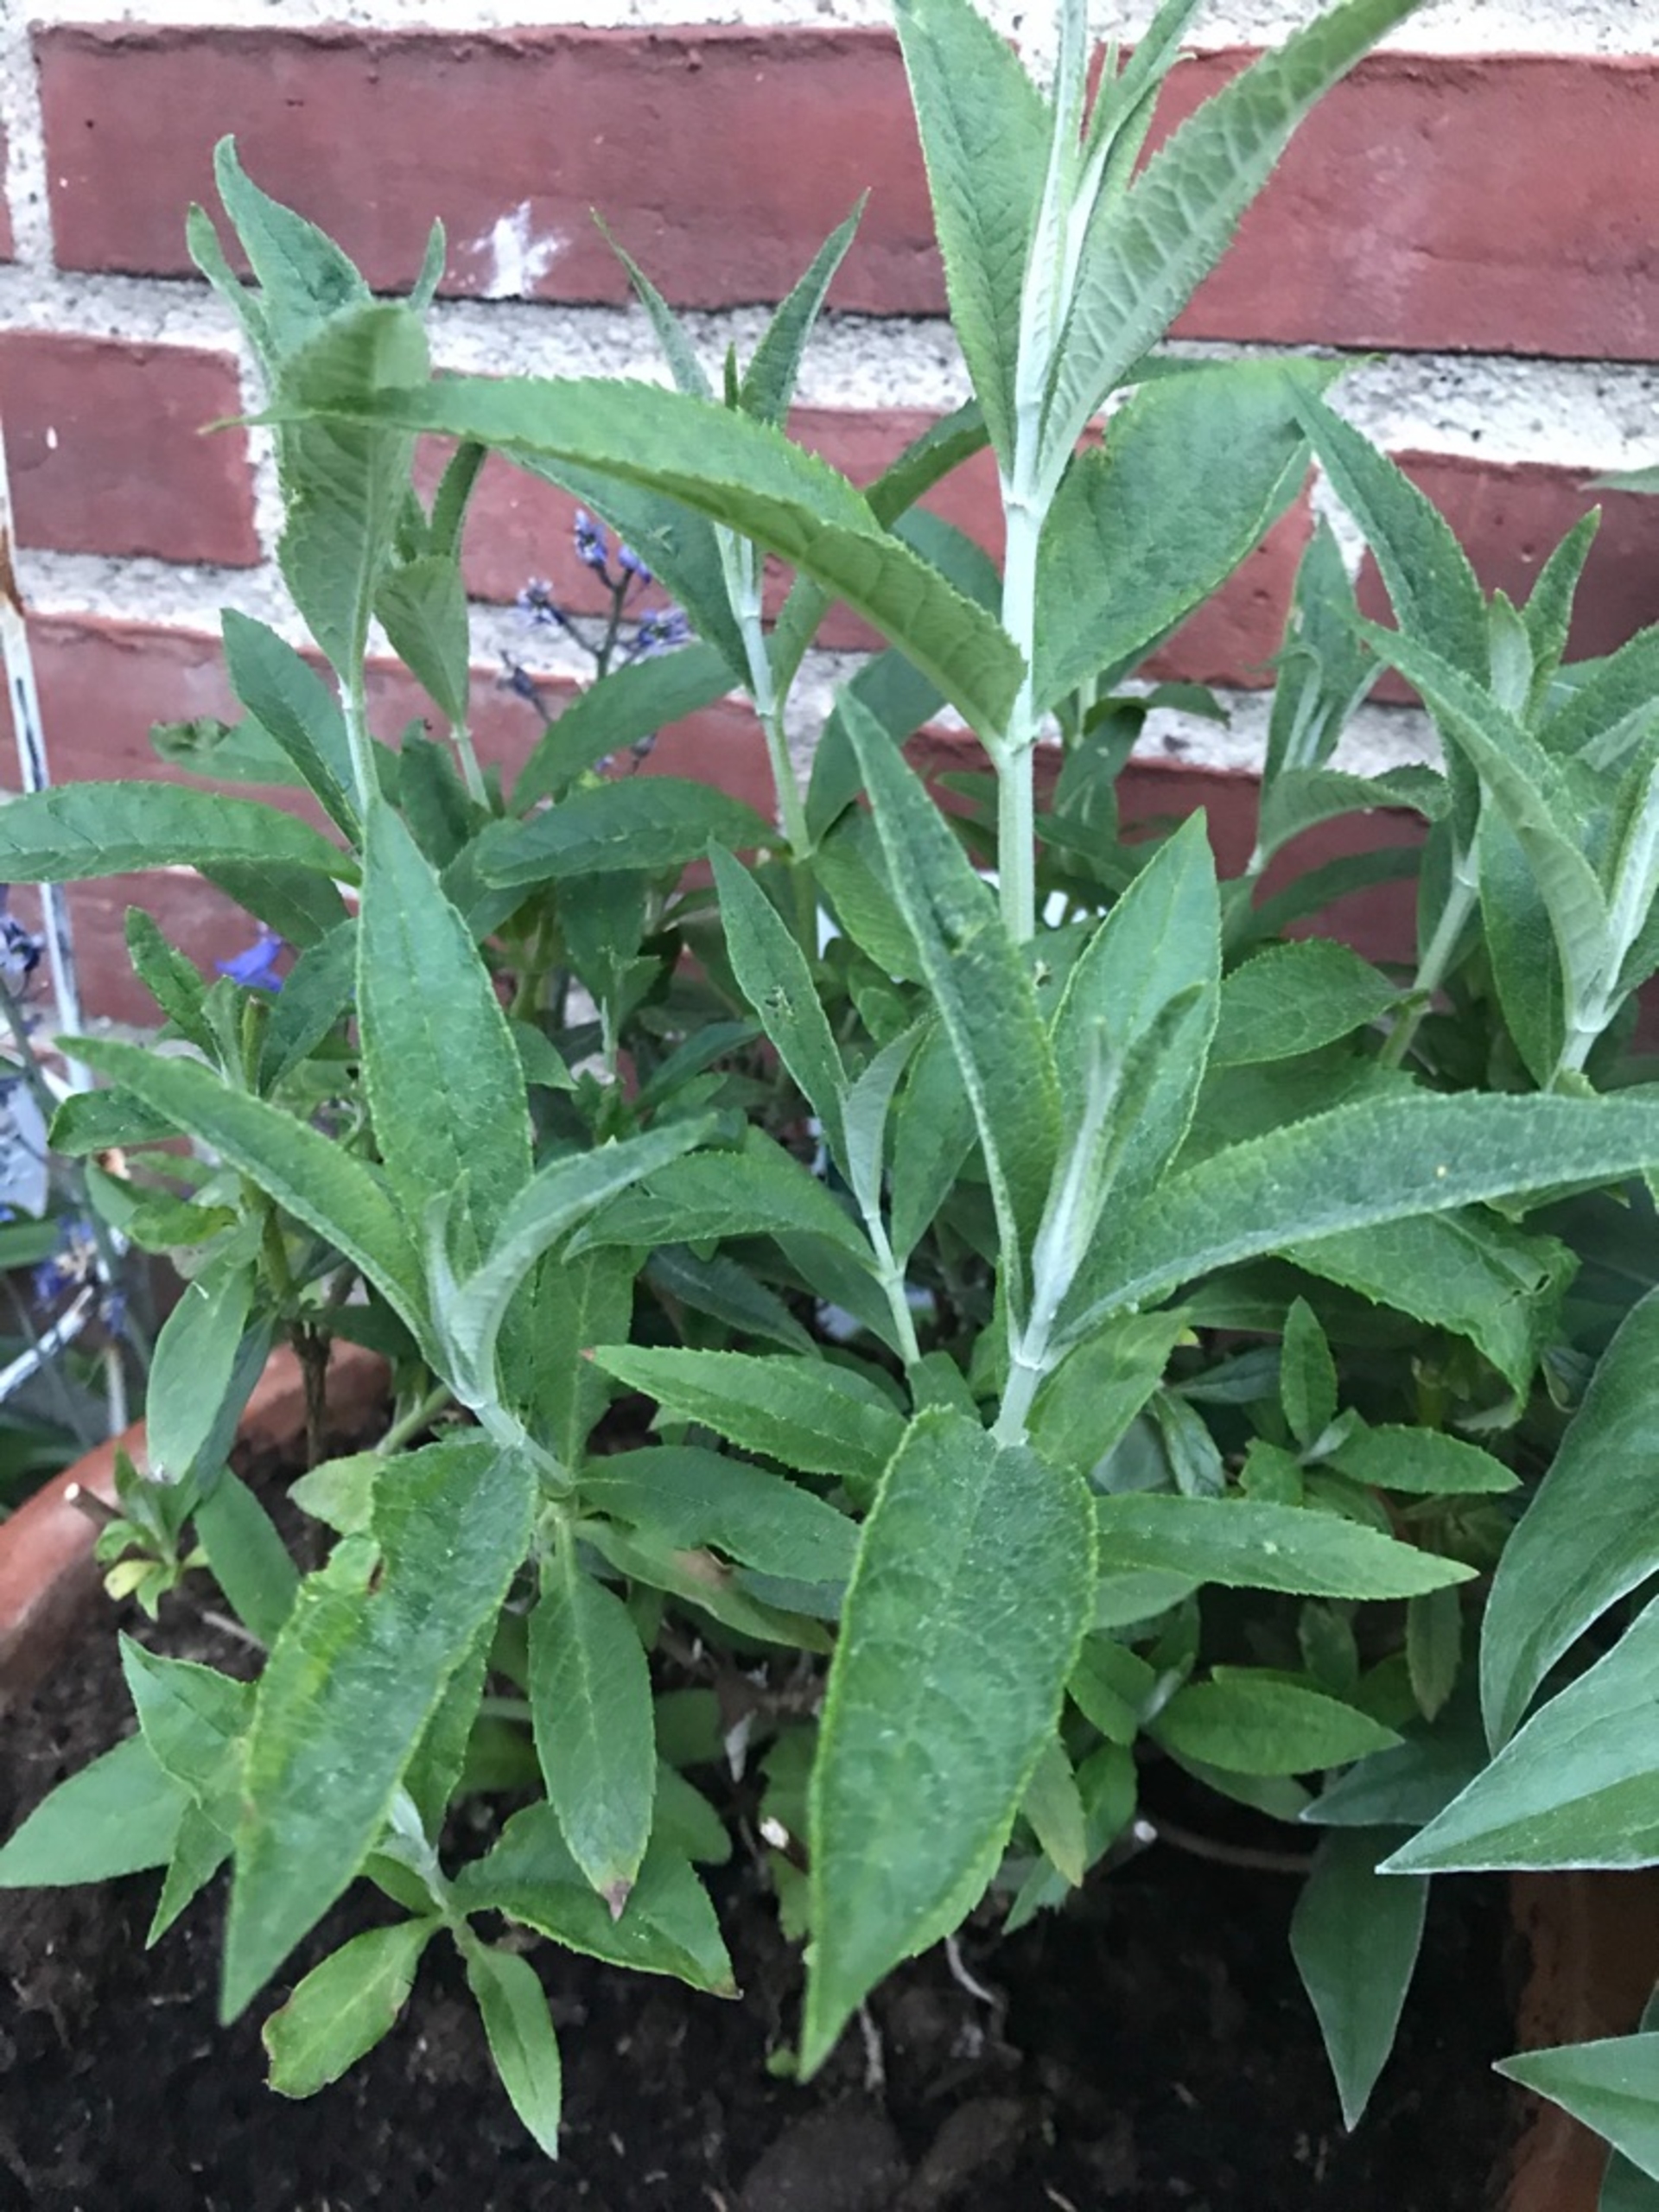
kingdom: Plantae
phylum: Tracheophyta
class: Magnoliopsida
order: Lamiales
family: Scrophulariaceae
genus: Buddleja
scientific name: Buddleja davidii
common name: Sommerfuglebusk
